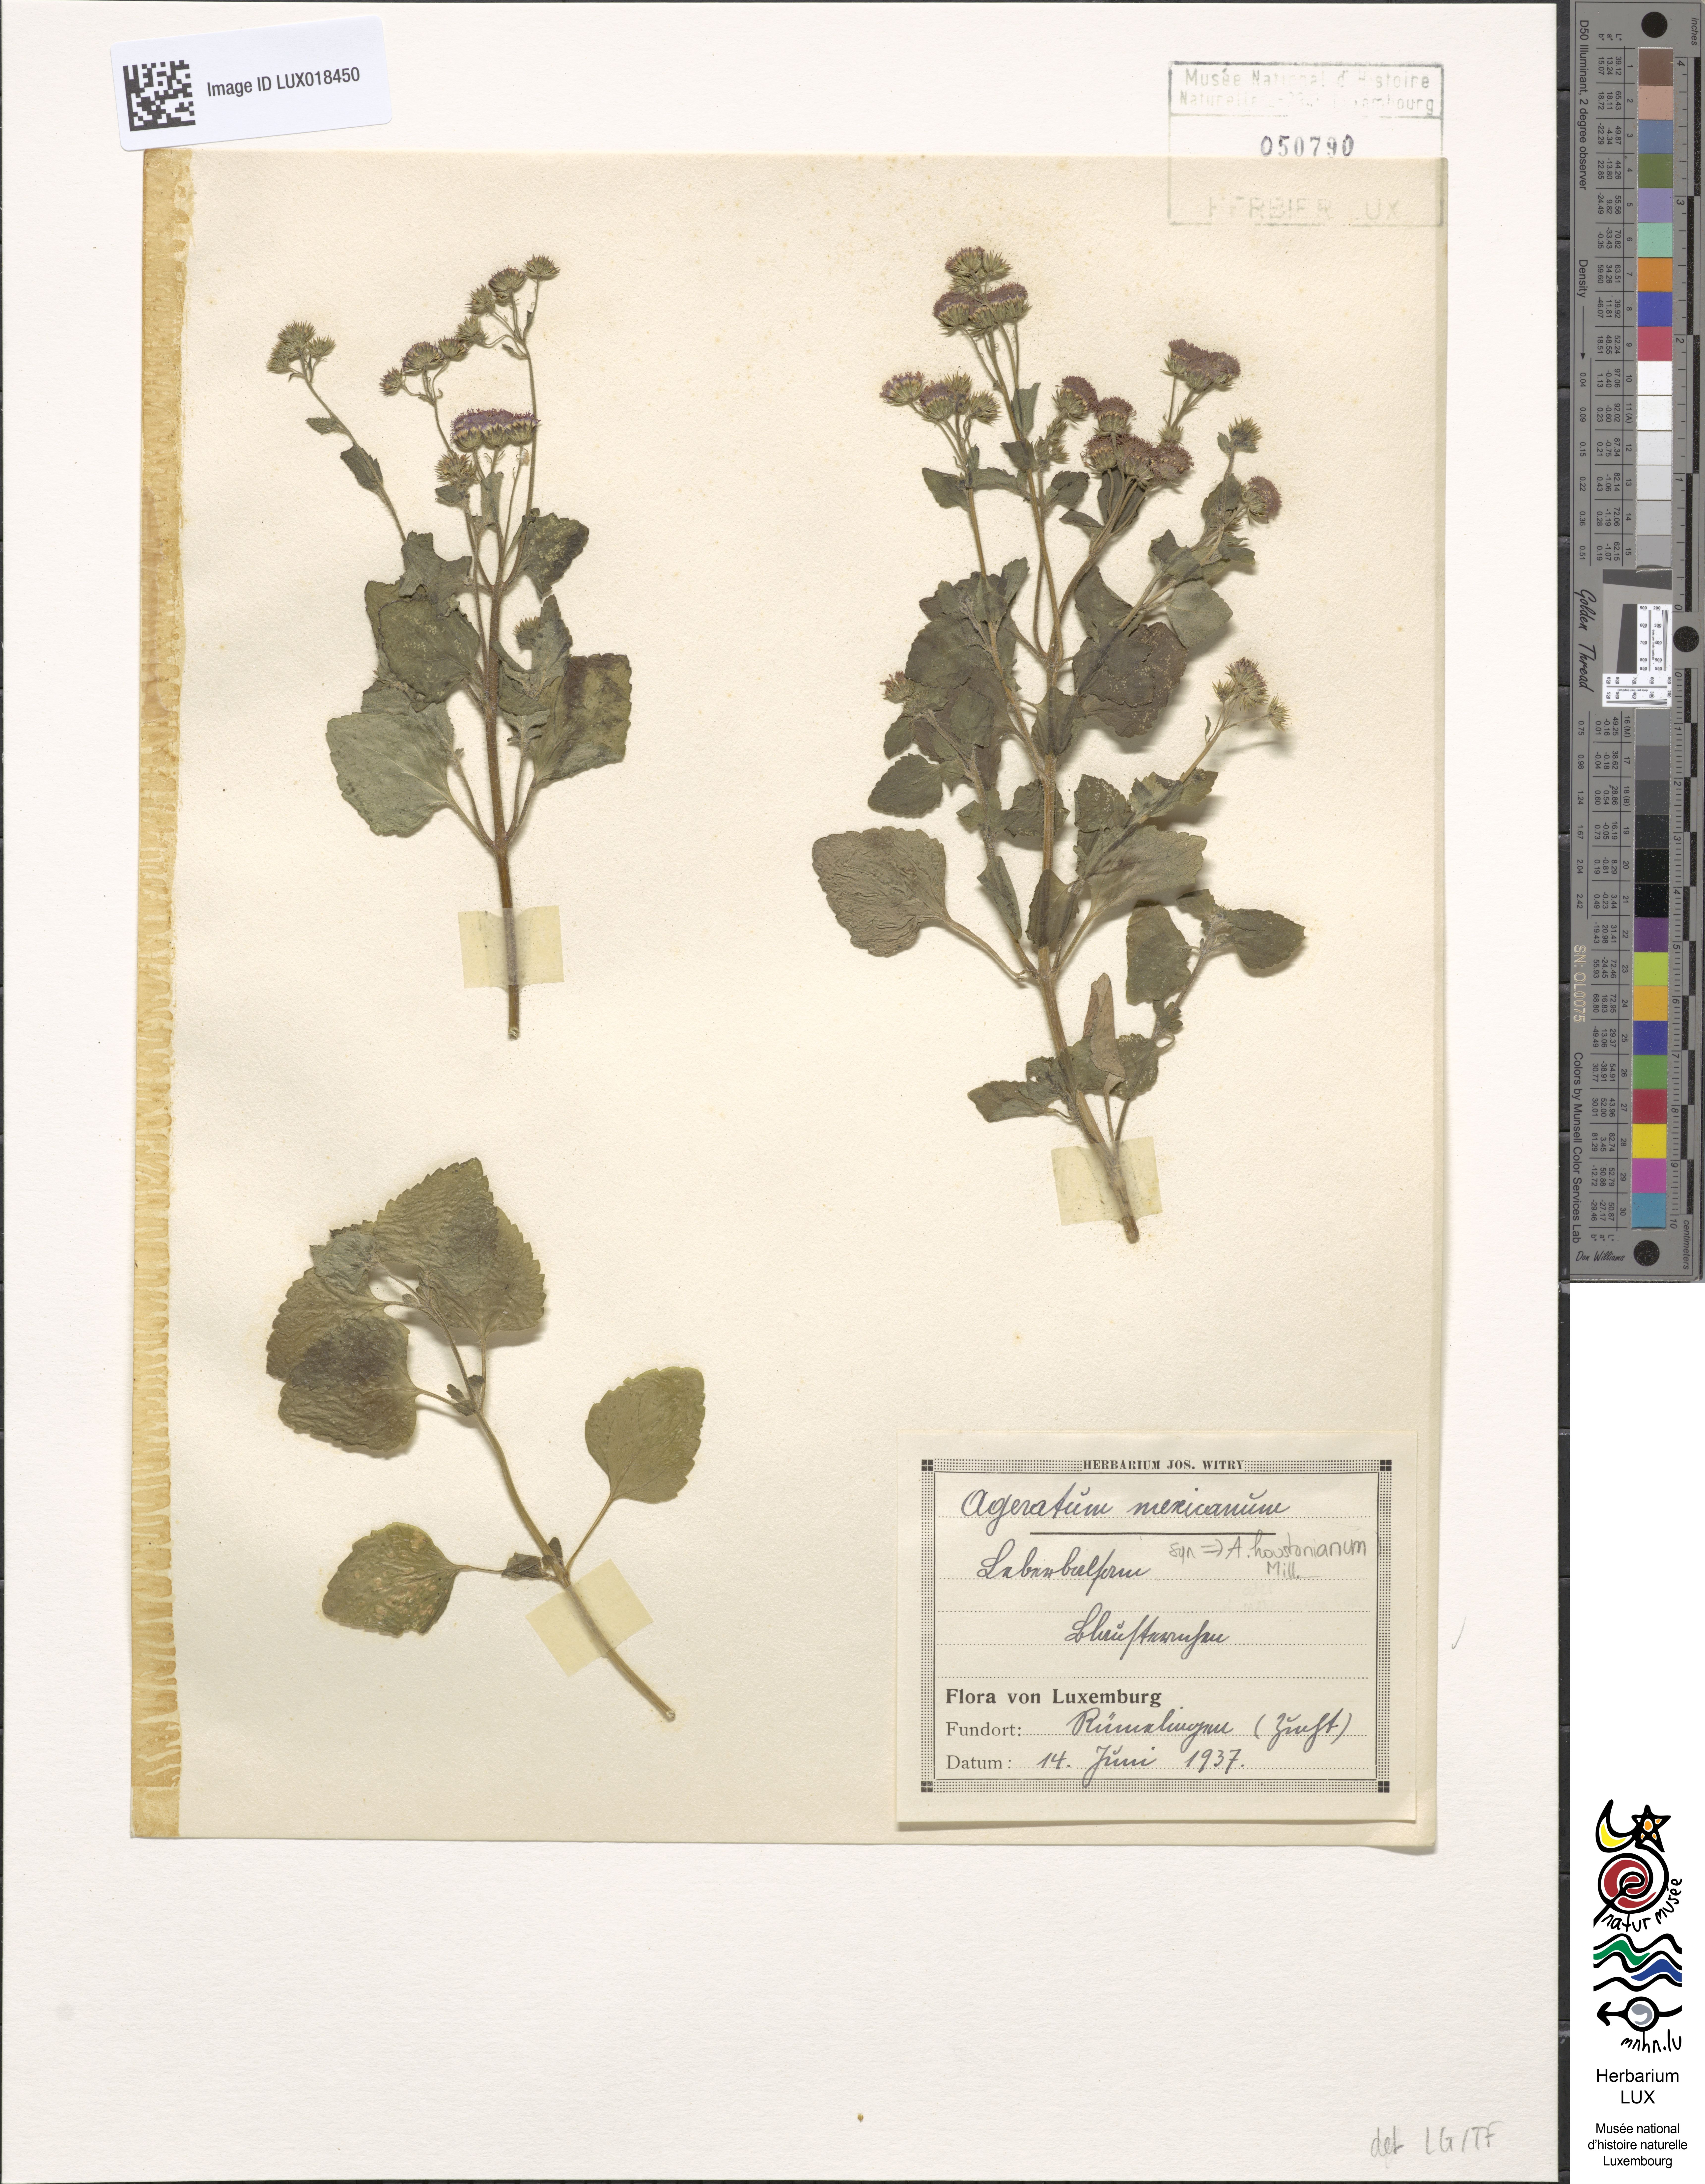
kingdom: Plantae
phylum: Tracheophyta
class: Magnoliopsida
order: Asterales
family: Asteraceae
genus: Ageratum
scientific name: Ageratum houstonianum
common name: Bluemink
